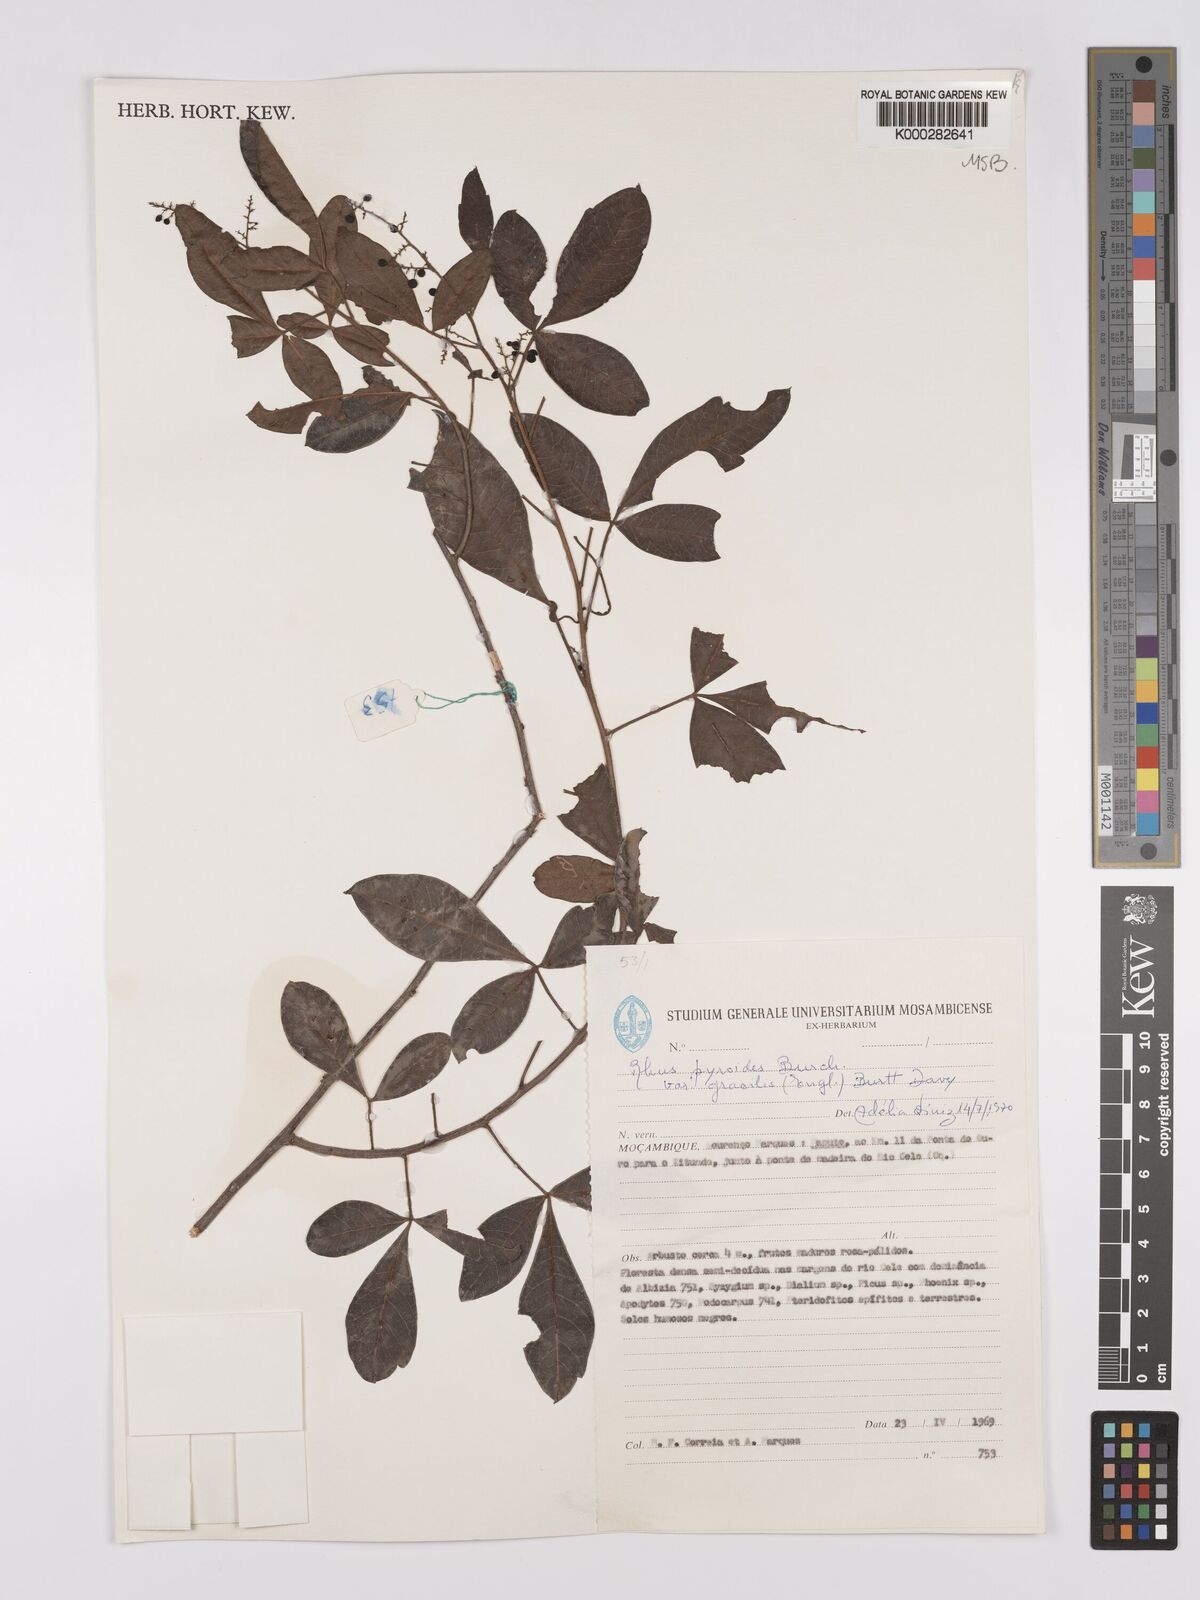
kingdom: Plantae
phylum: Tracheophyta
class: Magnoliopsida
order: Sapindales
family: Anacardiaceae
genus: Searsia
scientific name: Searsia pyroides
